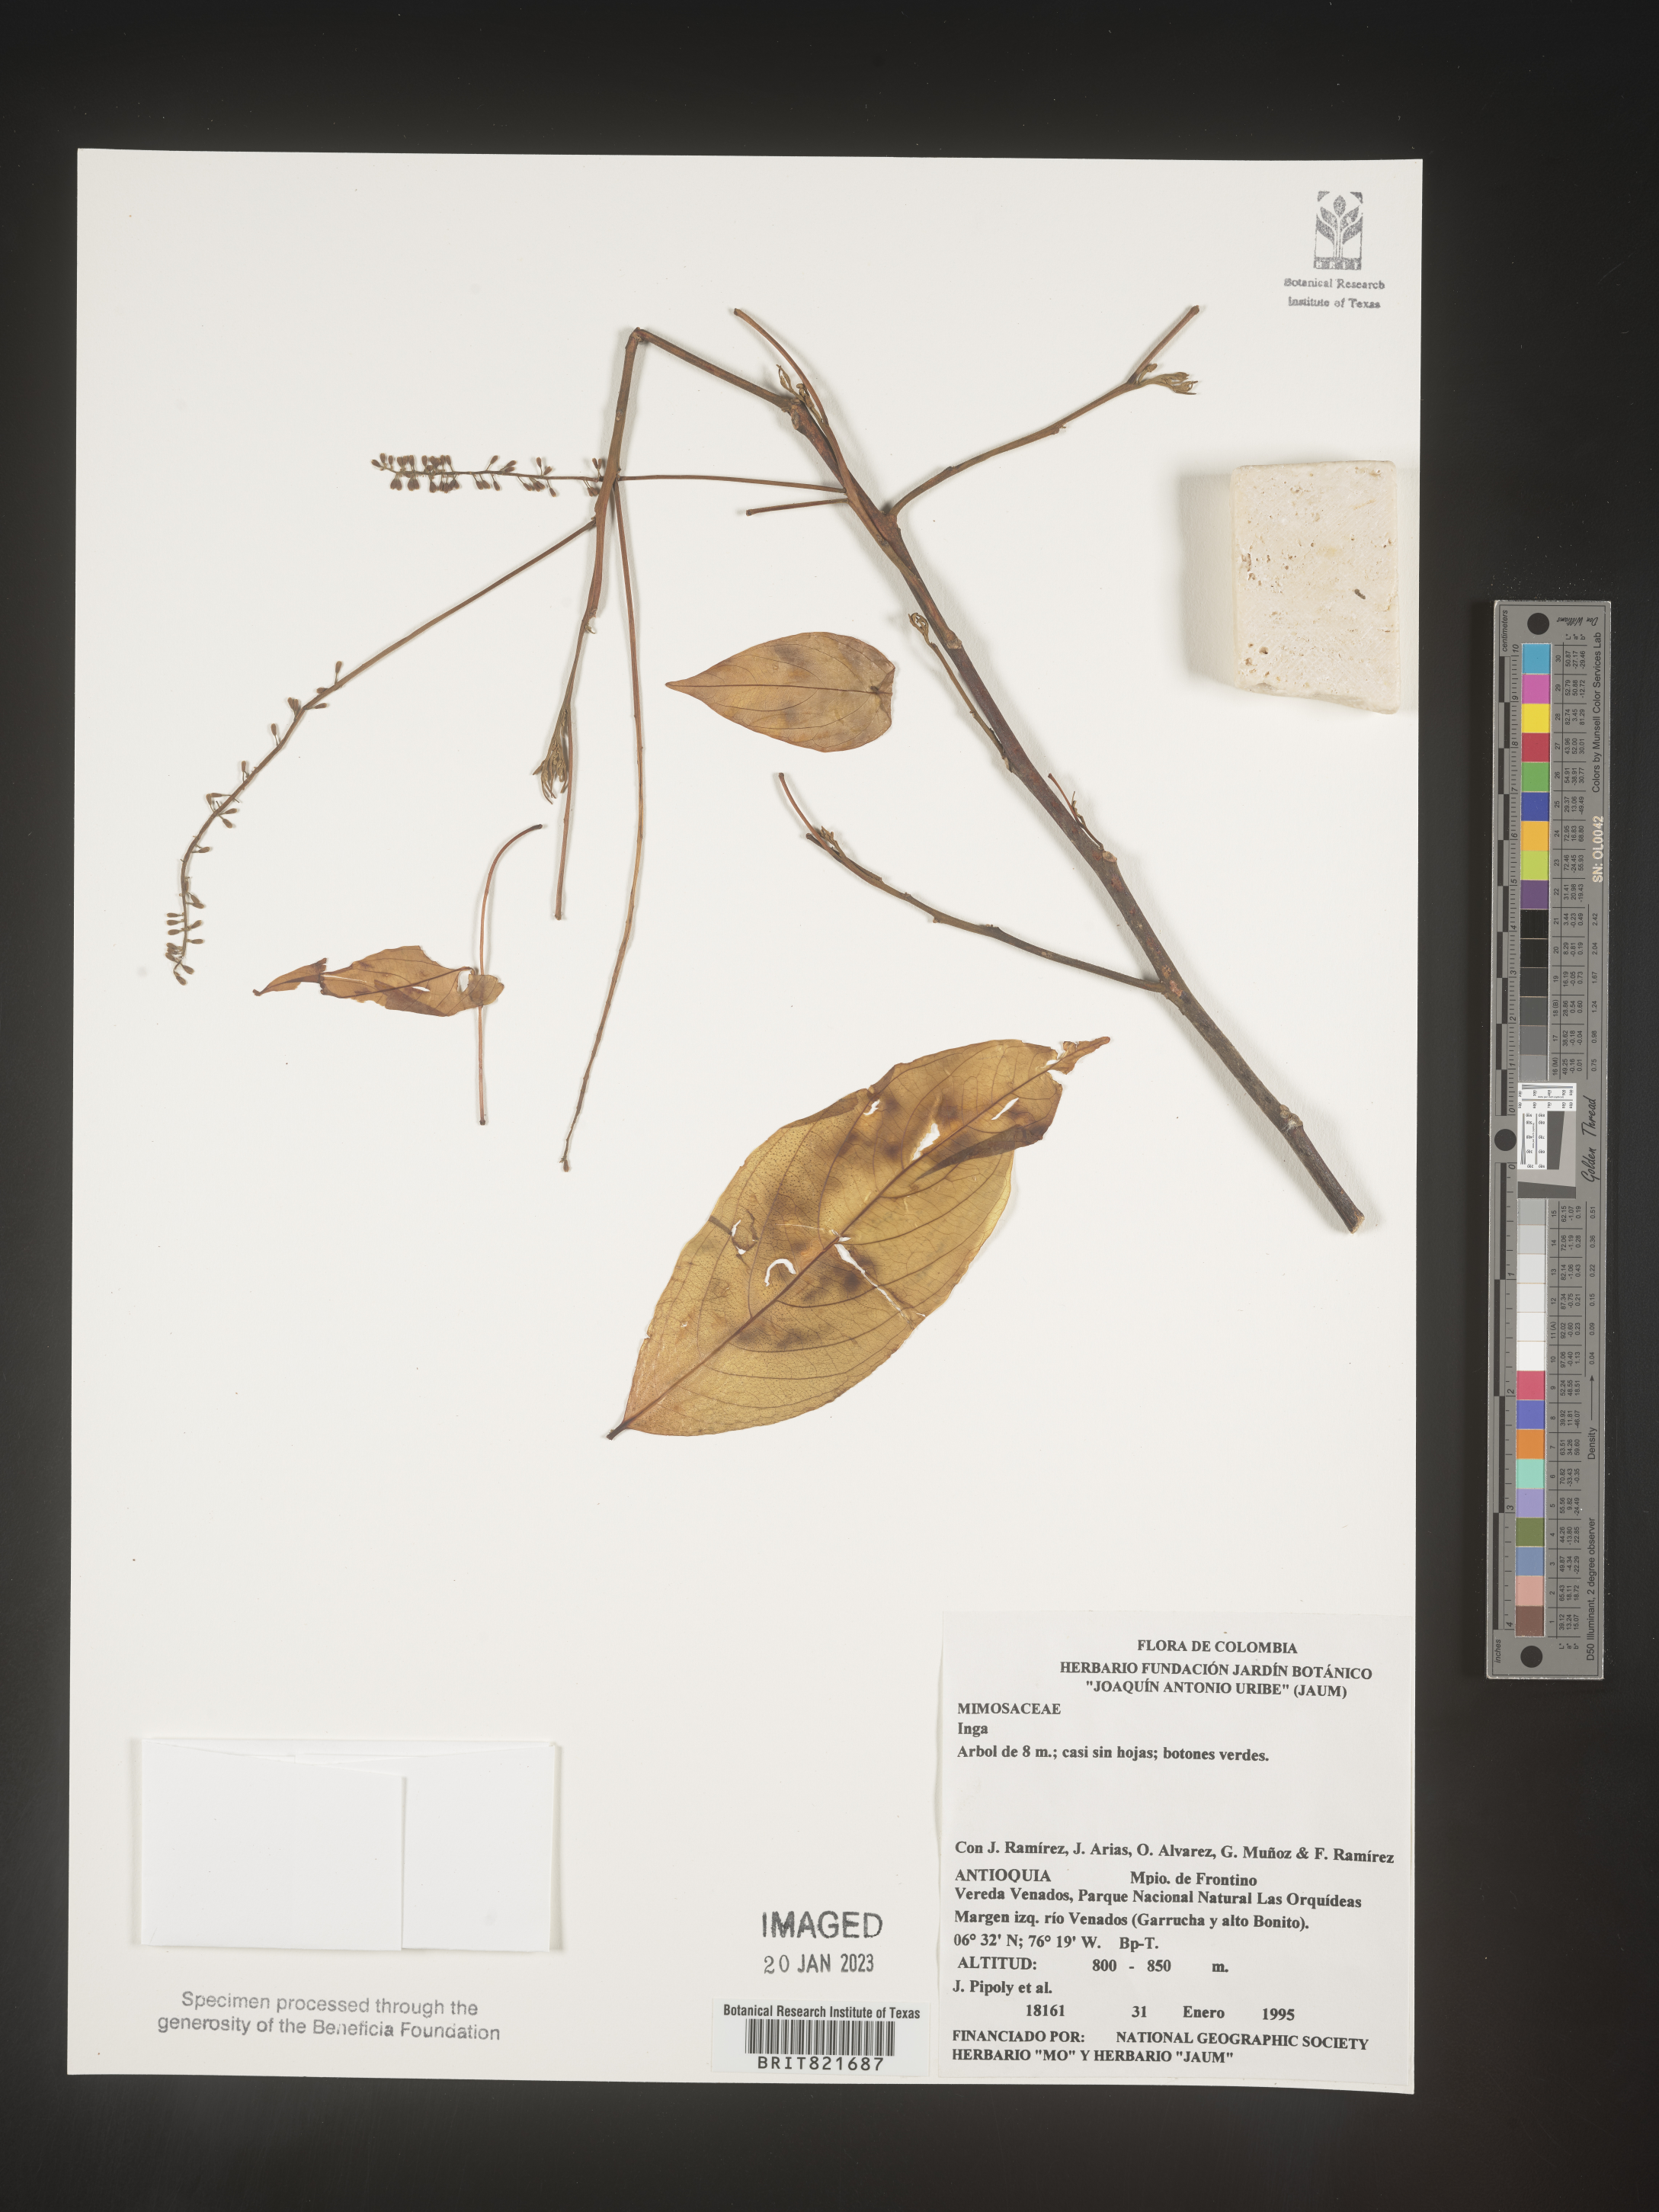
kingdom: Plantae
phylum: Tracheophyta
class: Magnoliopsida
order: Fabales
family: Fabaceae
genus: Inga
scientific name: Inga
